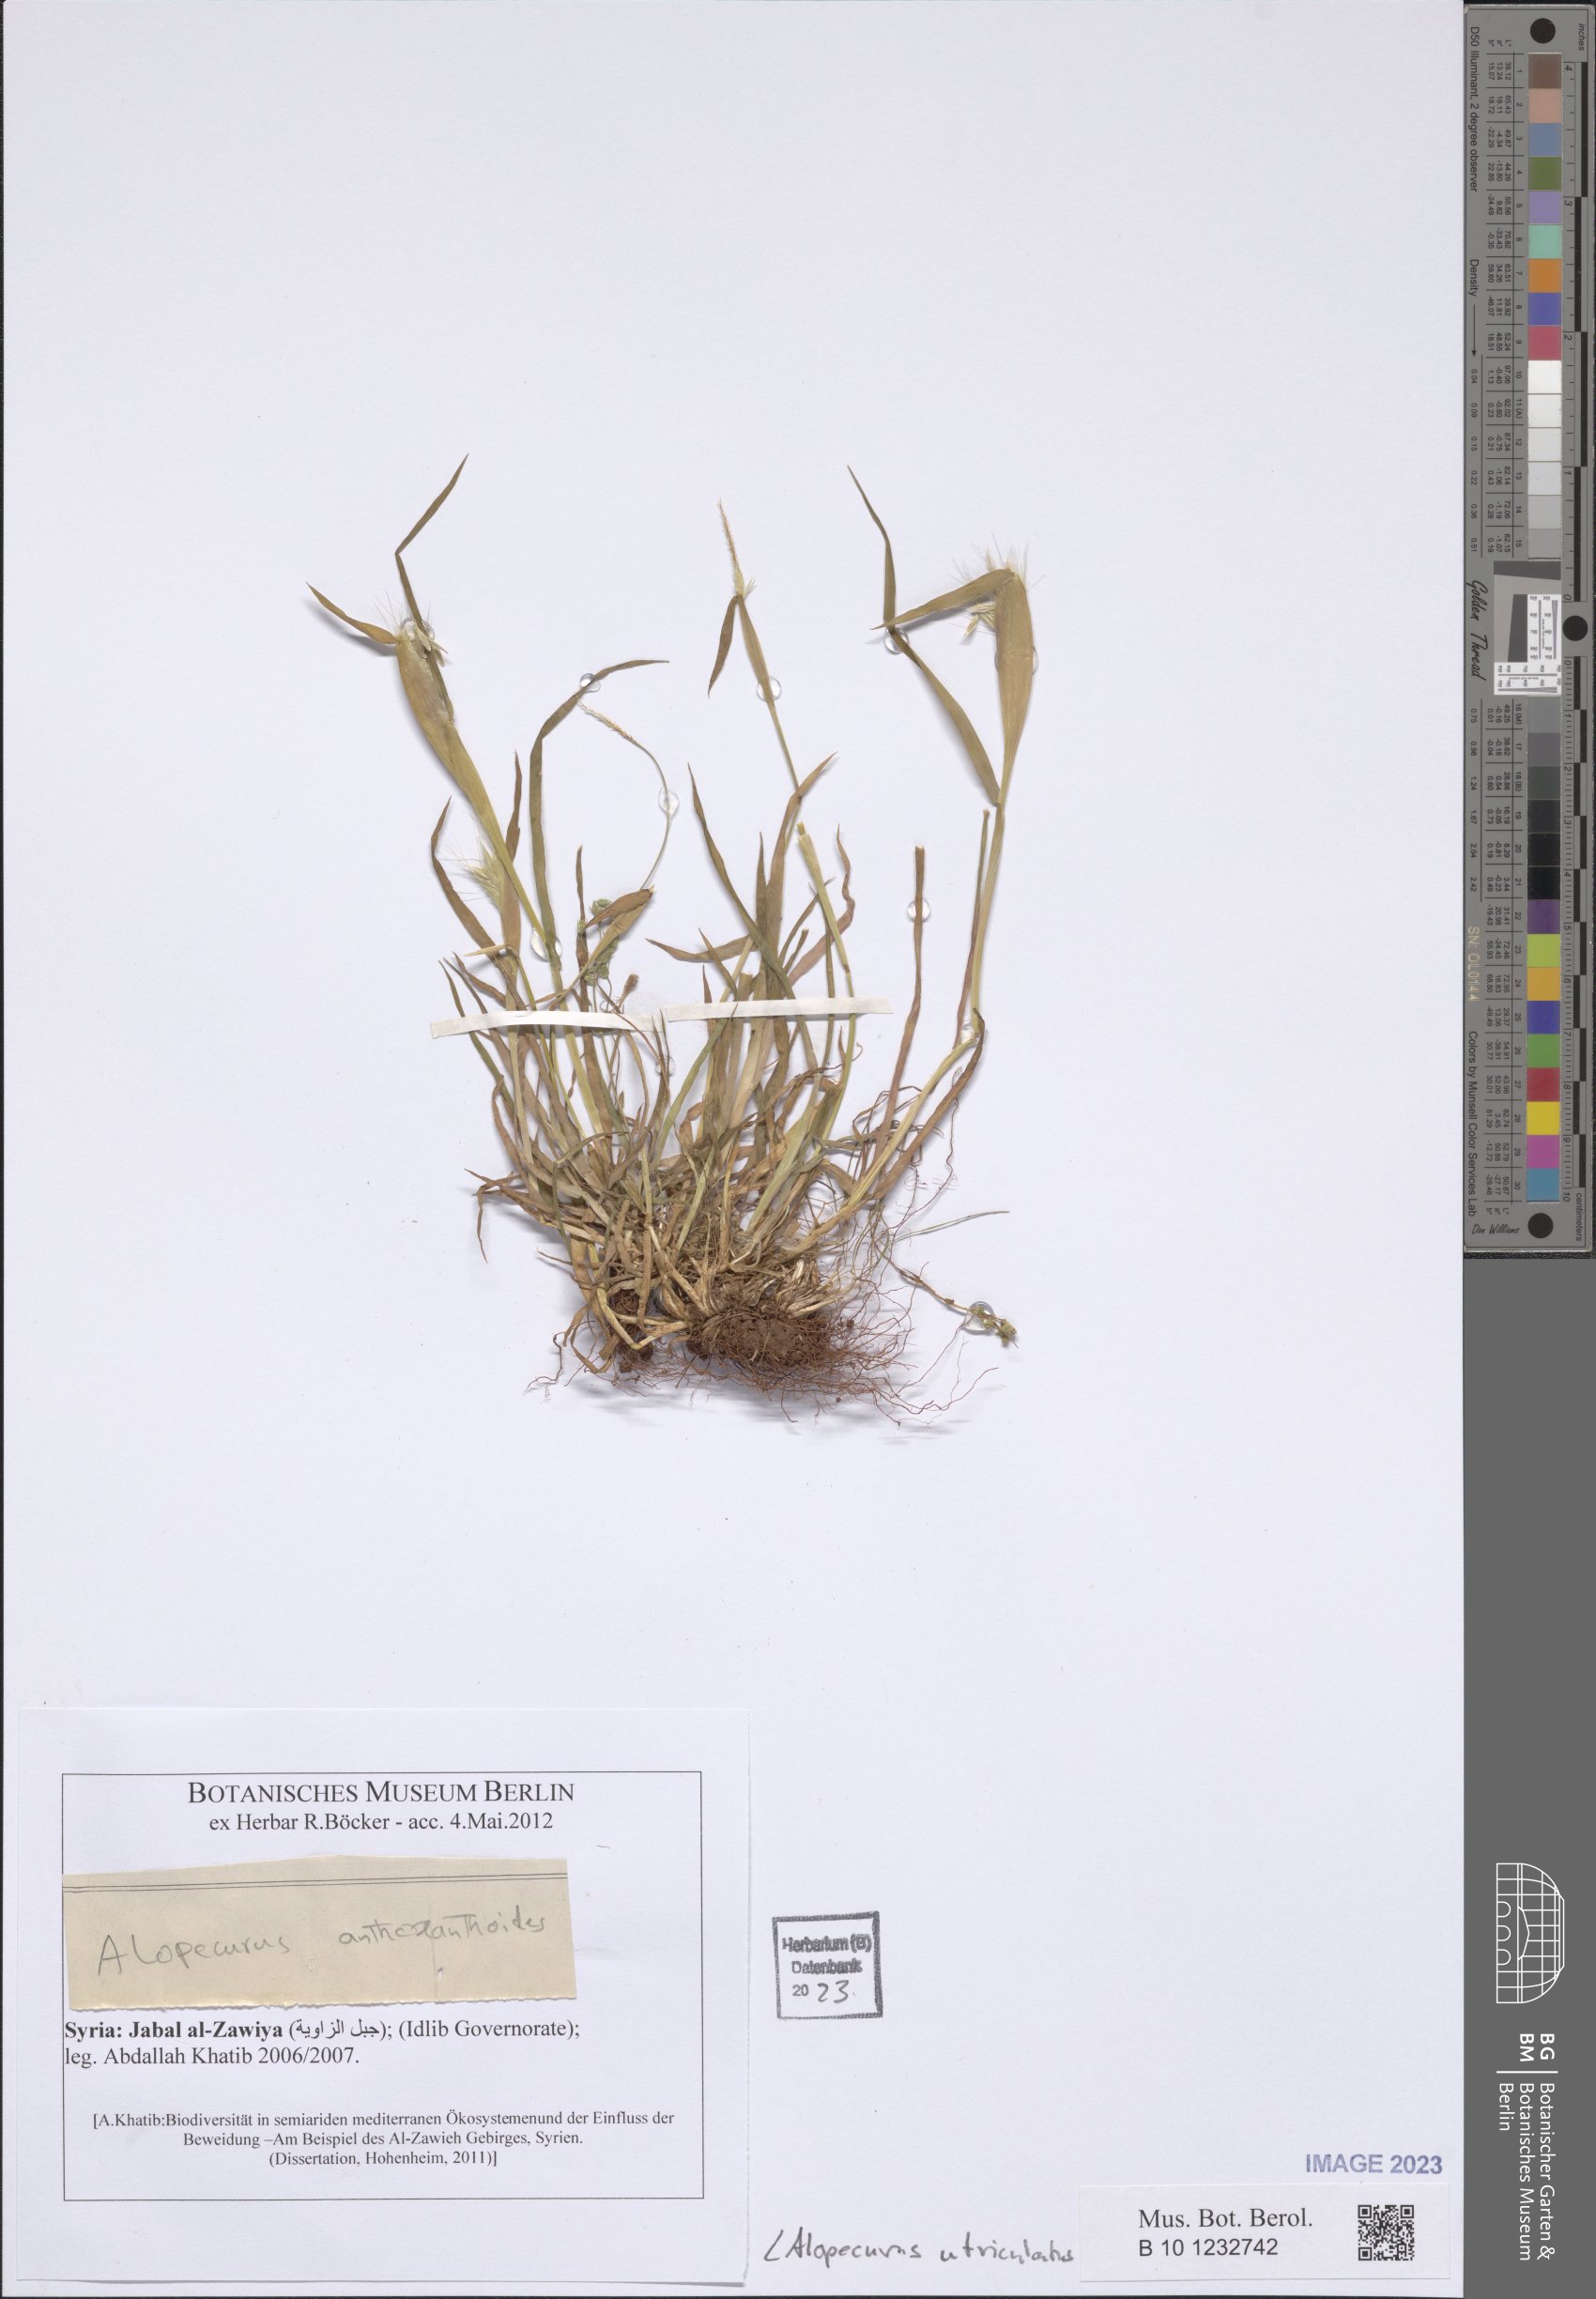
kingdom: Plantae
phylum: Tracheophyta
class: Liliopsida
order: Poales
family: Poaceae
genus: Alopecurus
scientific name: Alopecurus rendlei
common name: Rendle's meadow foxtail
